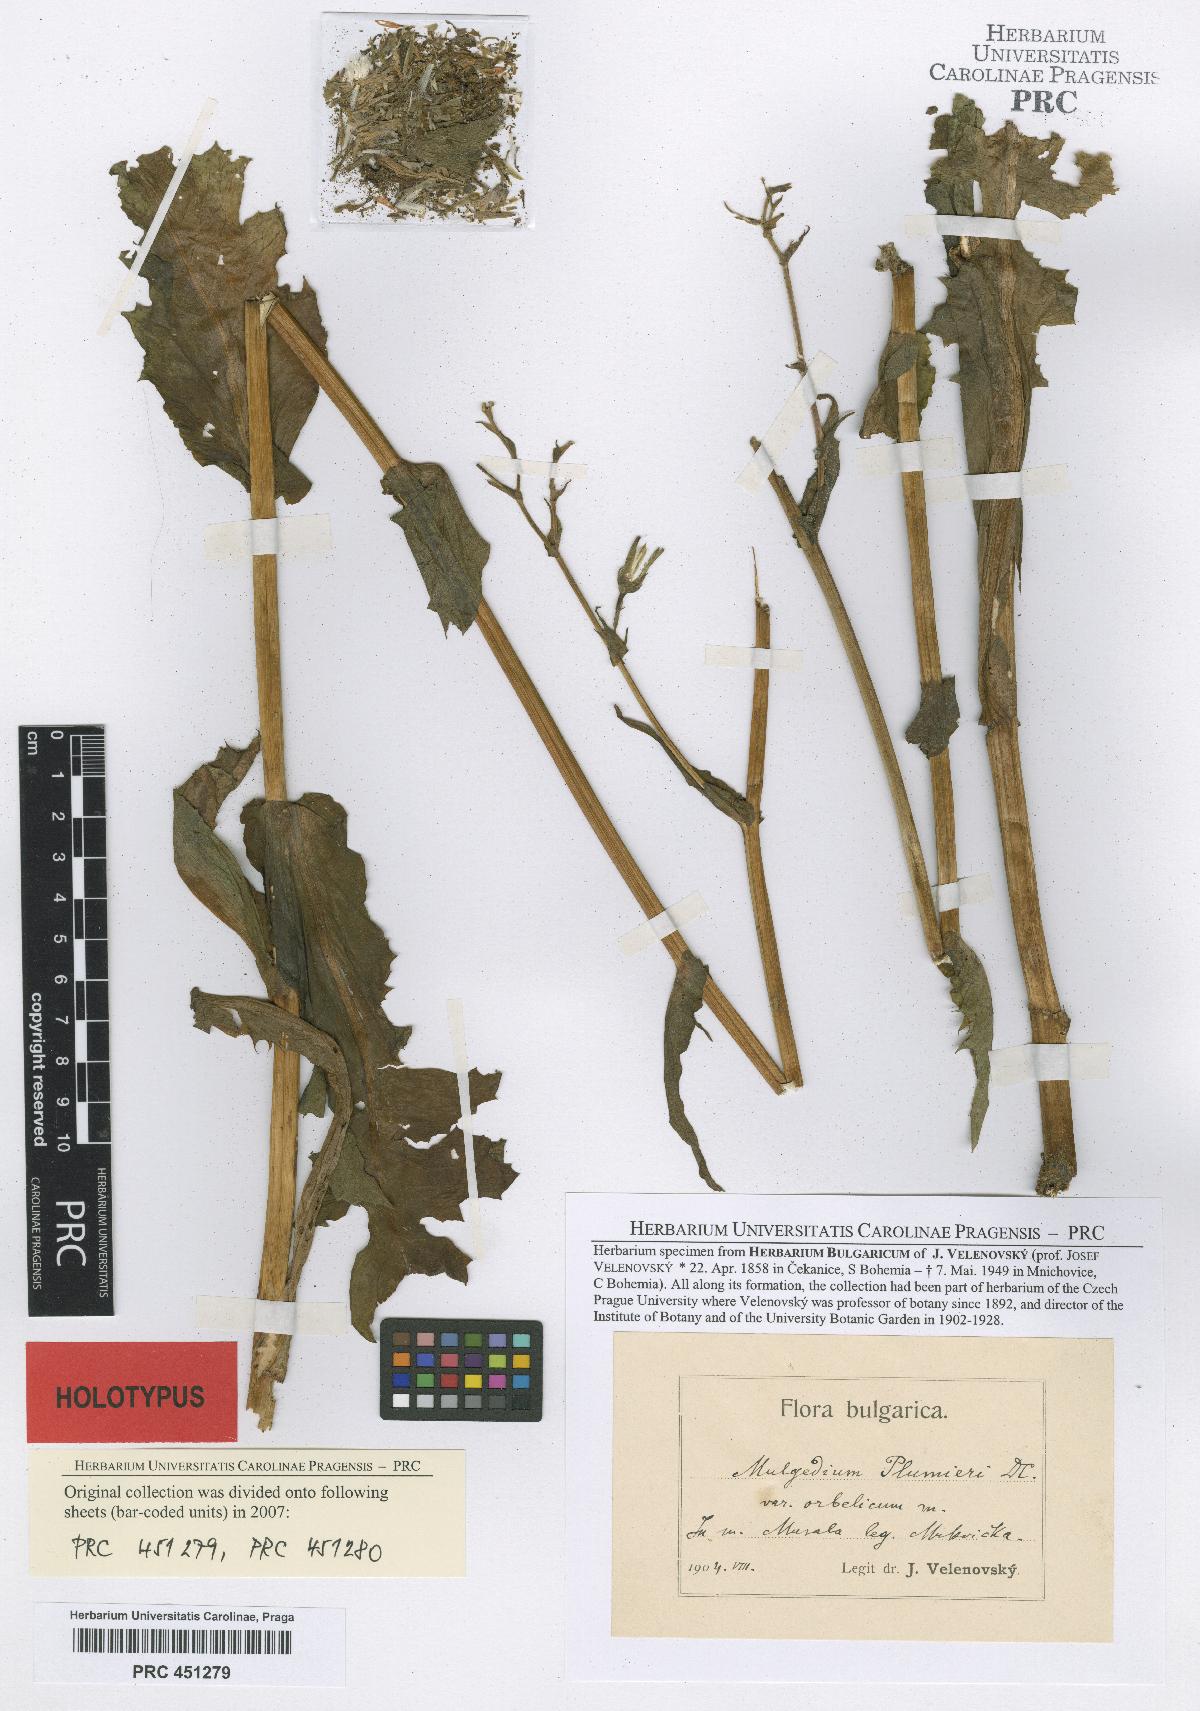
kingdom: Plantae
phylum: Tracheophyta
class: Magnoliopsida
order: Asterales
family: Asteraceae
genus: Lactuca
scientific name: Lactuca plumieri
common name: Hairless blue-sow-thistle
